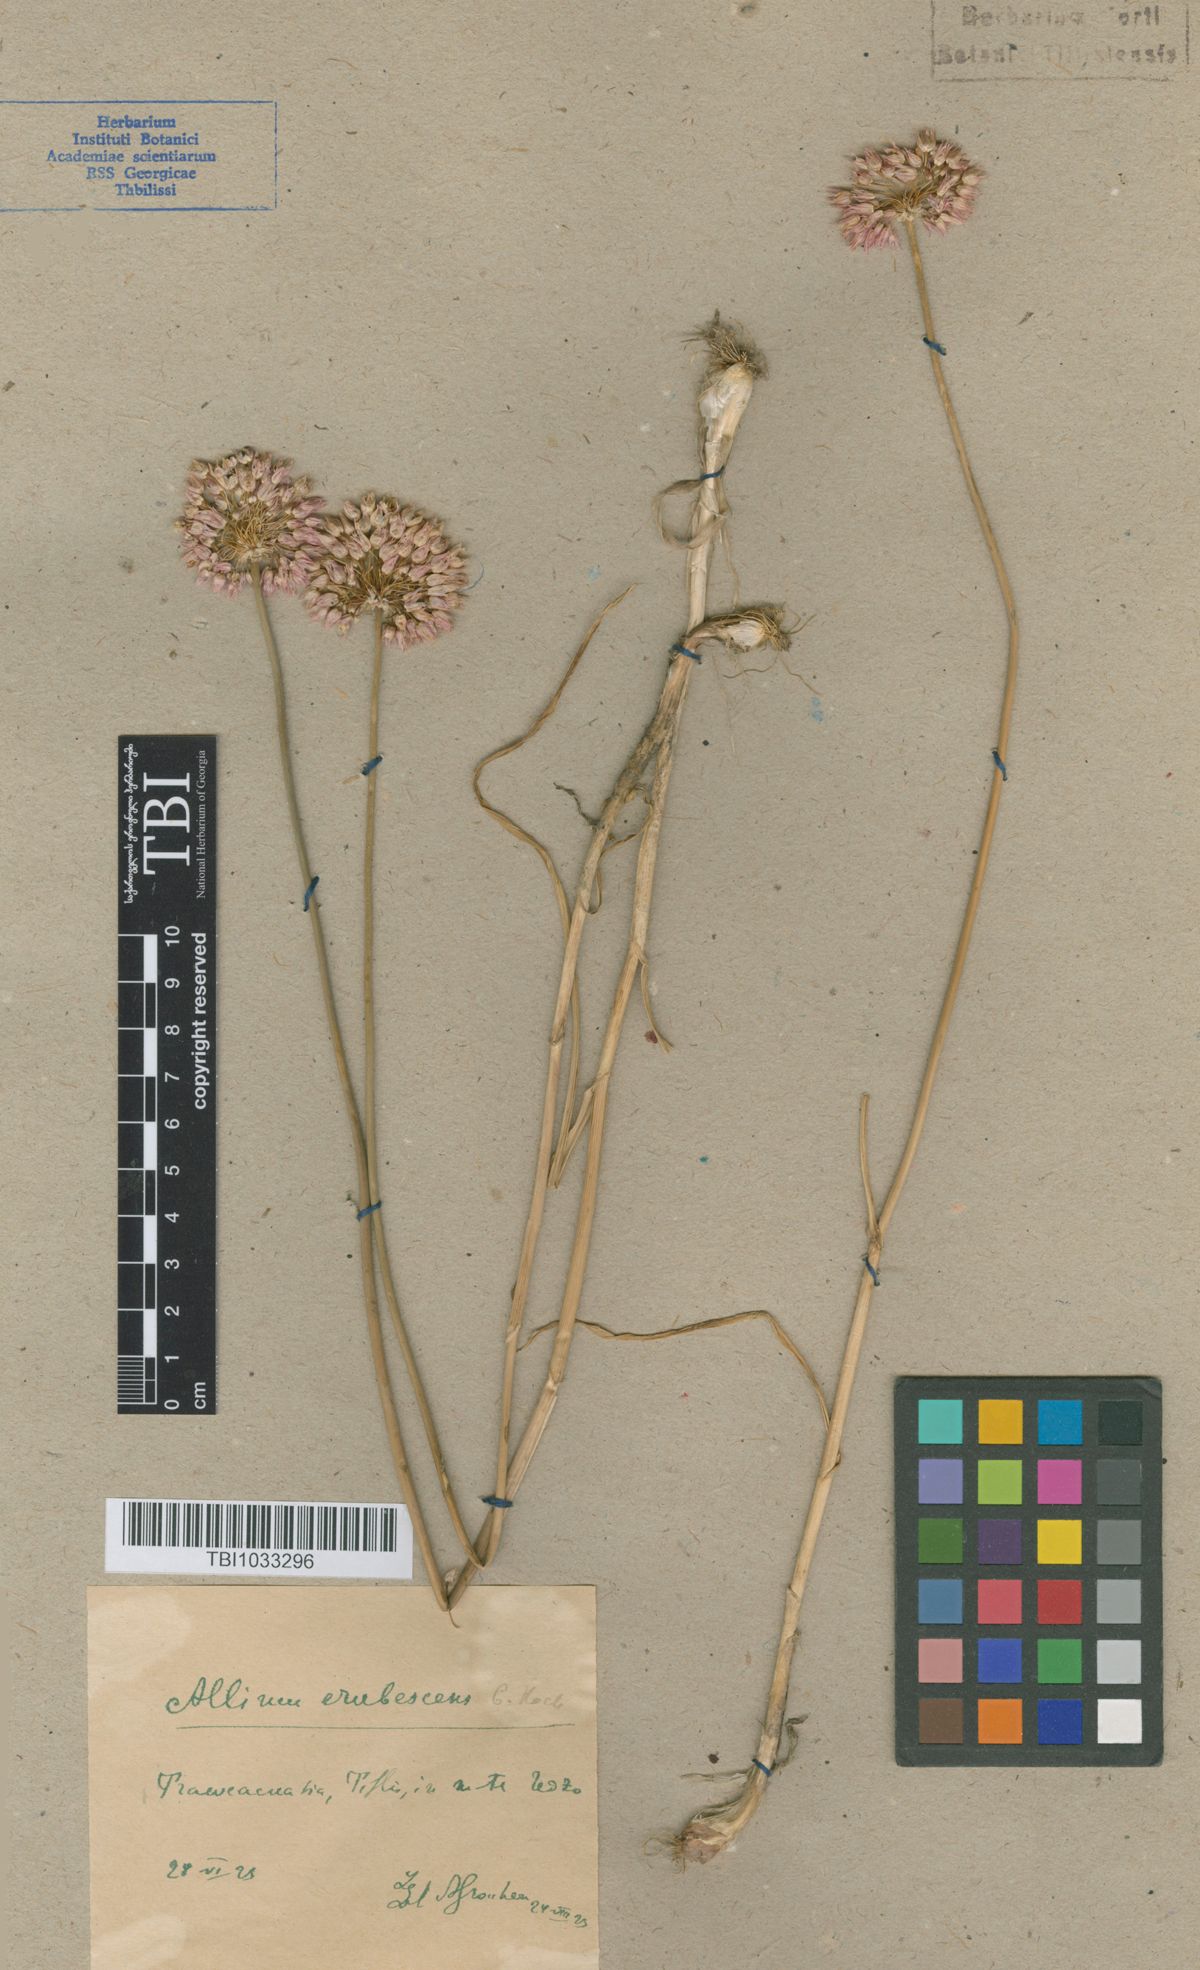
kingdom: Plantae
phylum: Tracheophyta
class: Liliopsida
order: Asparagales
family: Amaryllidaceae
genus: Allium
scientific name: Allium erubescens
